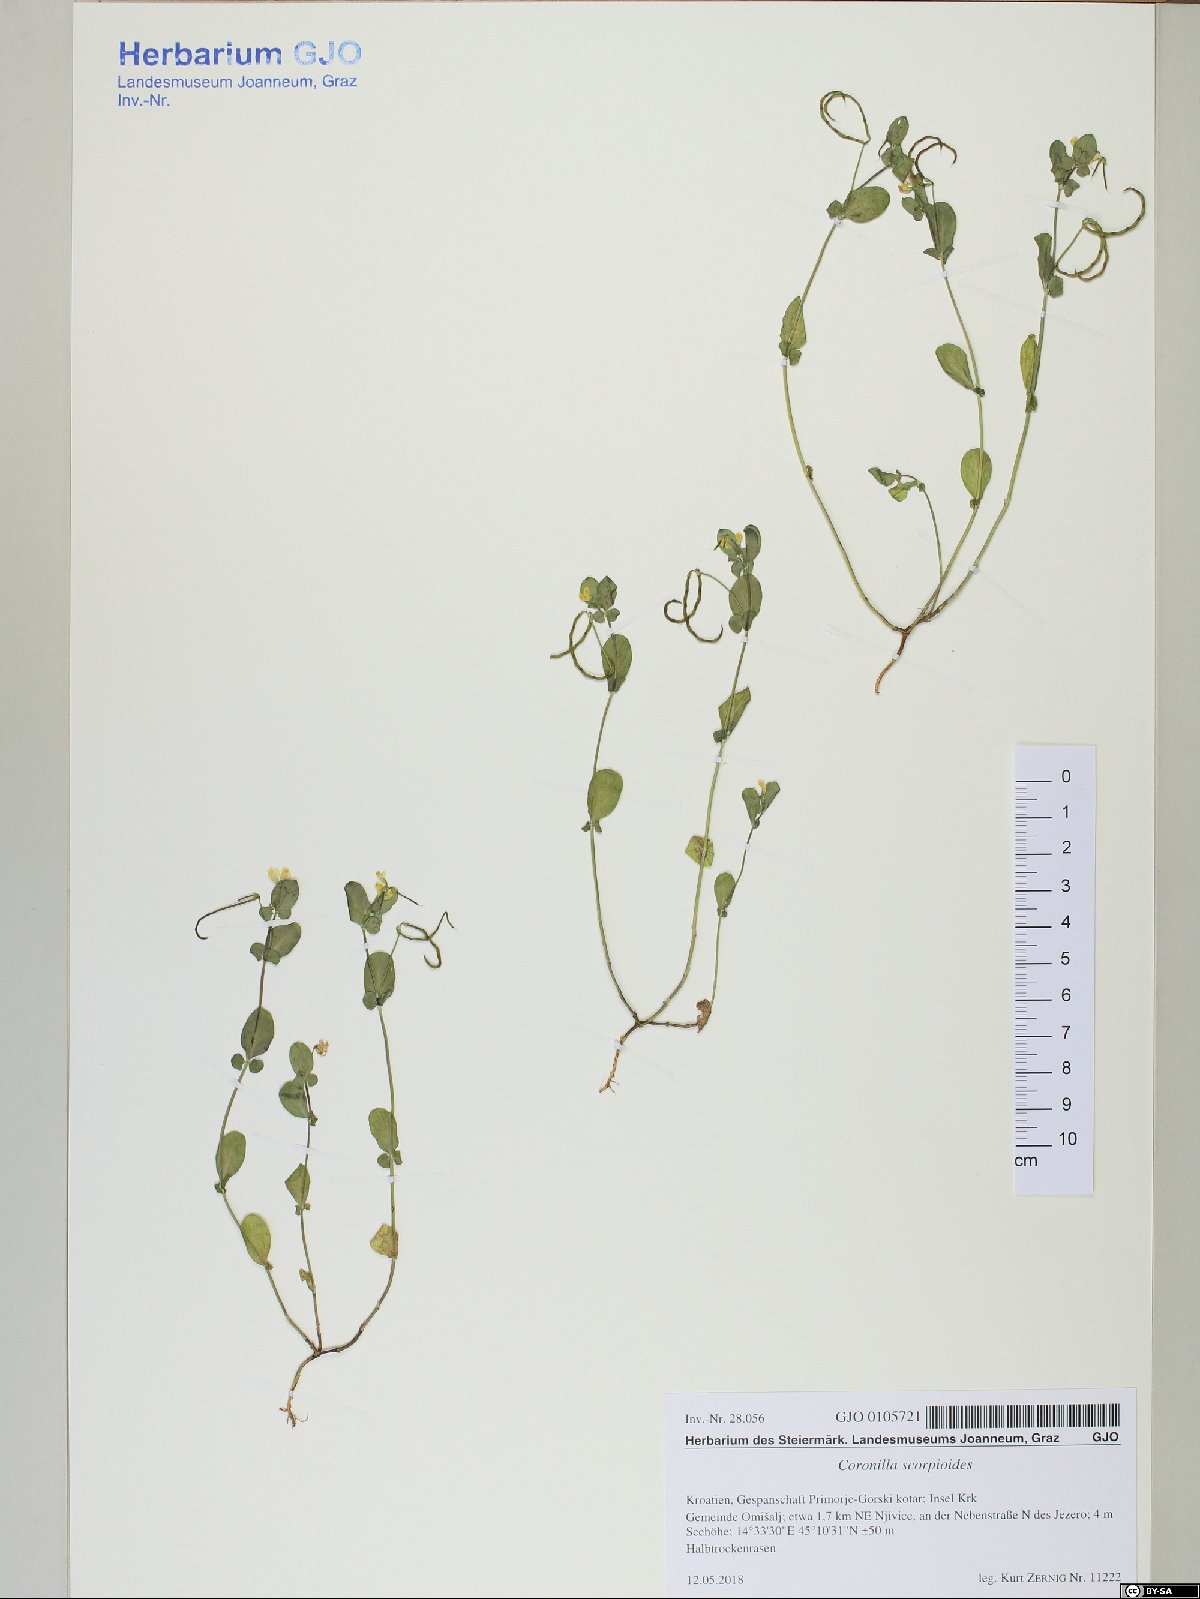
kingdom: Plantae
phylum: Tracheophyta
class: Magnoliopsida
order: Fabales
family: Fabaceae
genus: Coronilla
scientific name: Coronilla scorpioides
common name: Annual scorpion-vetch
